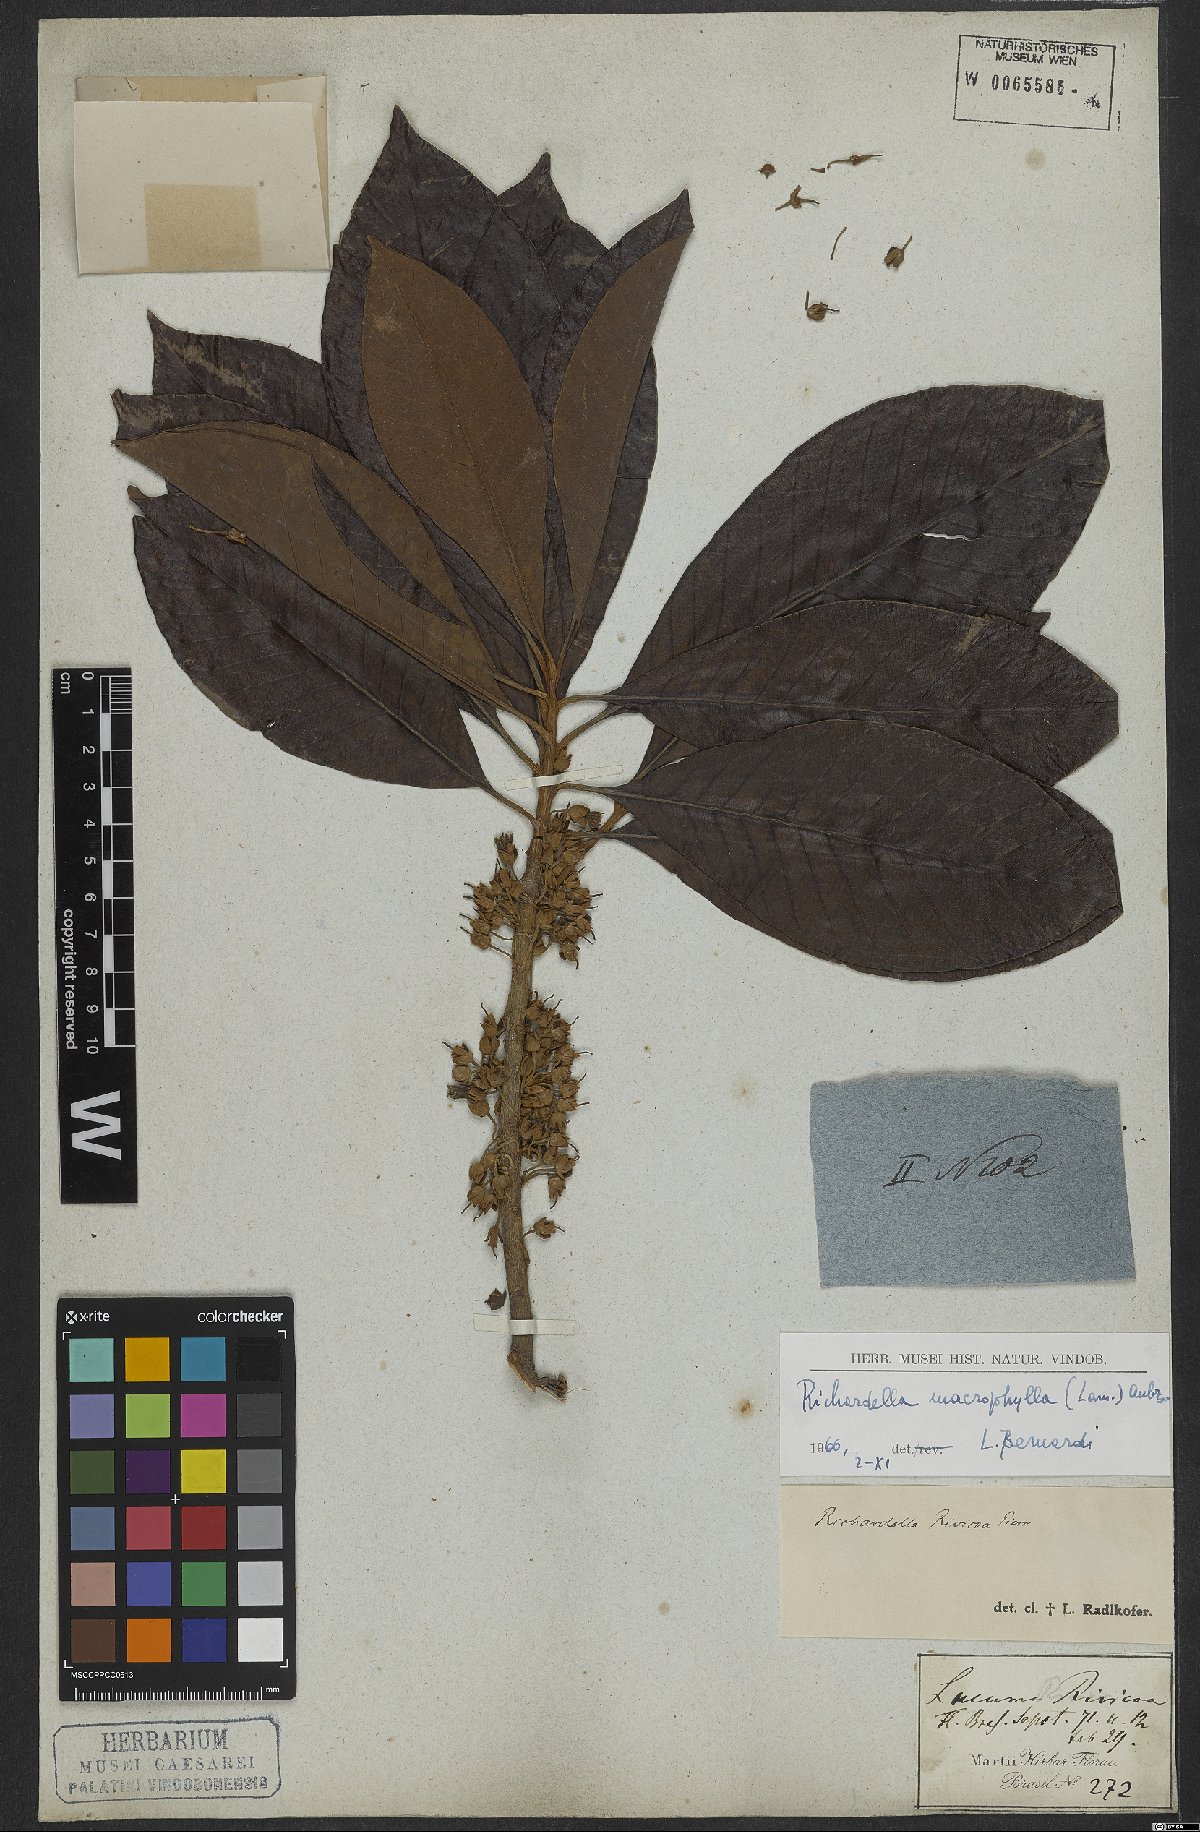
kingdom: Plantae
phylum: Tracheophyta
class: Magnoliopsida
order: Ericales
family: Sapotaceae
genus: Pouteria
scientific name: Pouteria macrophylla
